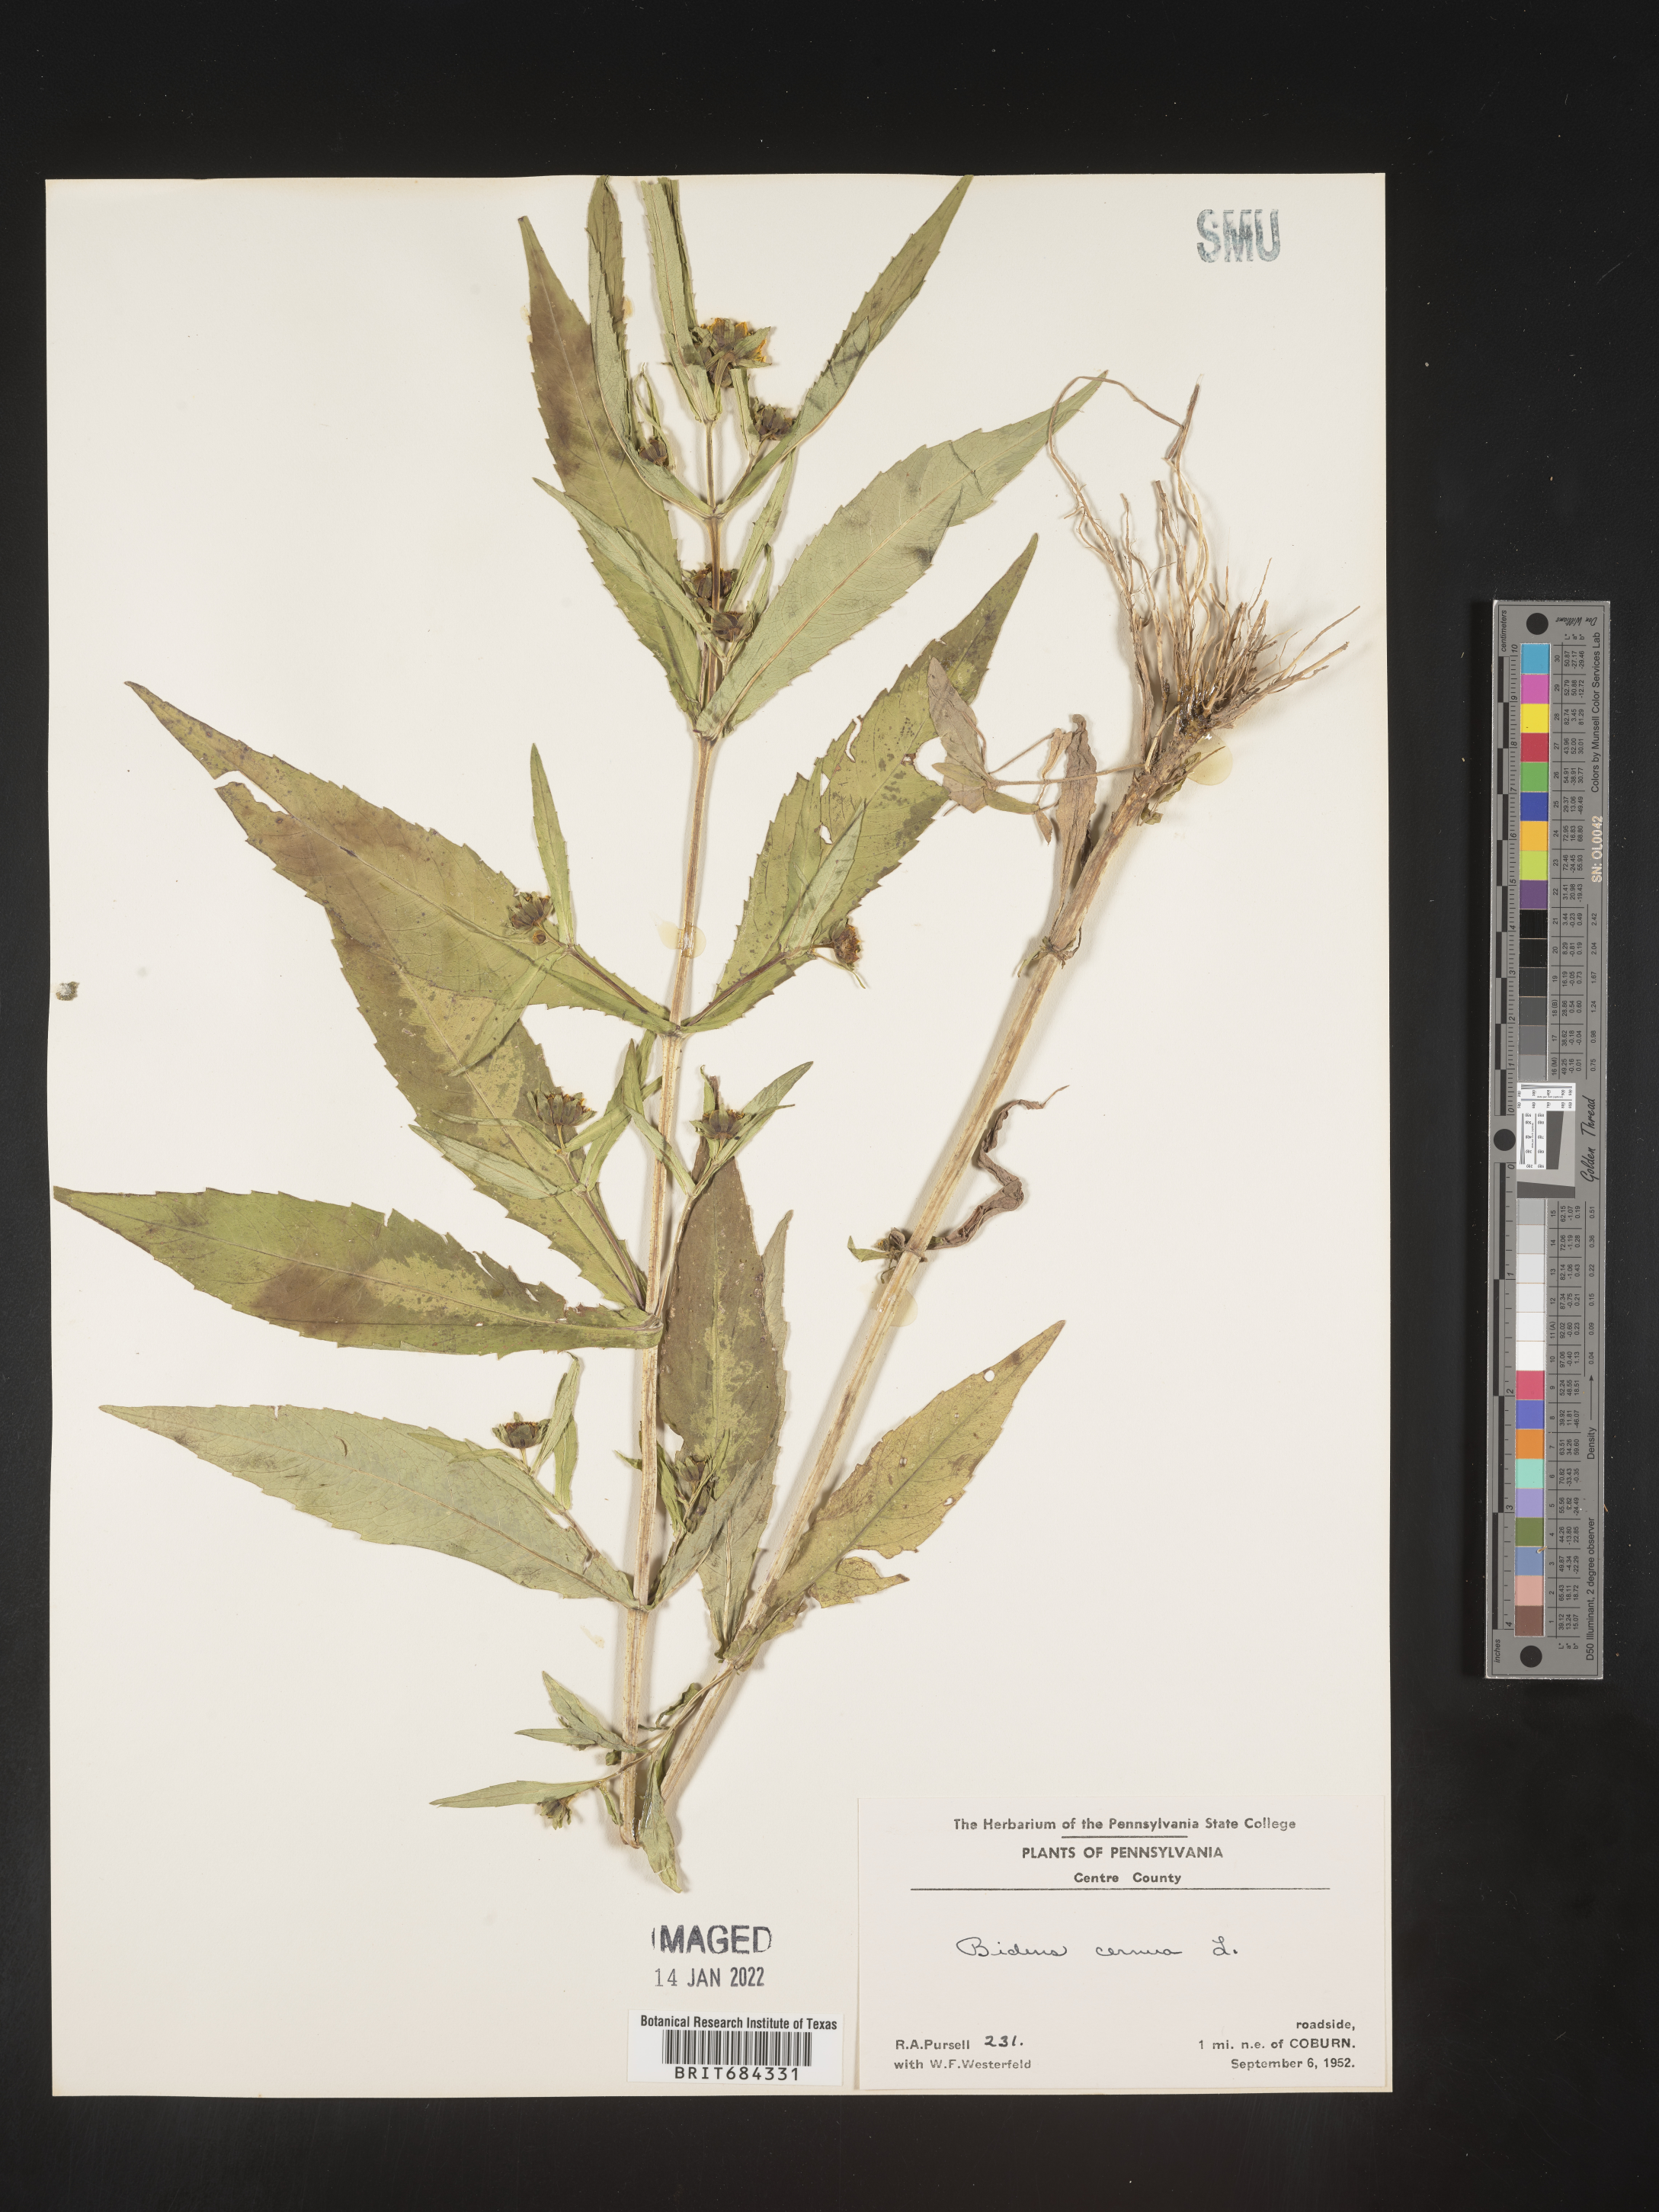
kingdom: Plantae
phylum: Tracheophyta
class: Magnoliopsida
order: Asterales
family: Asteraceae
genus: Bidens
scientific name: Bidens cernua
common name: Nodding bur-marigold
